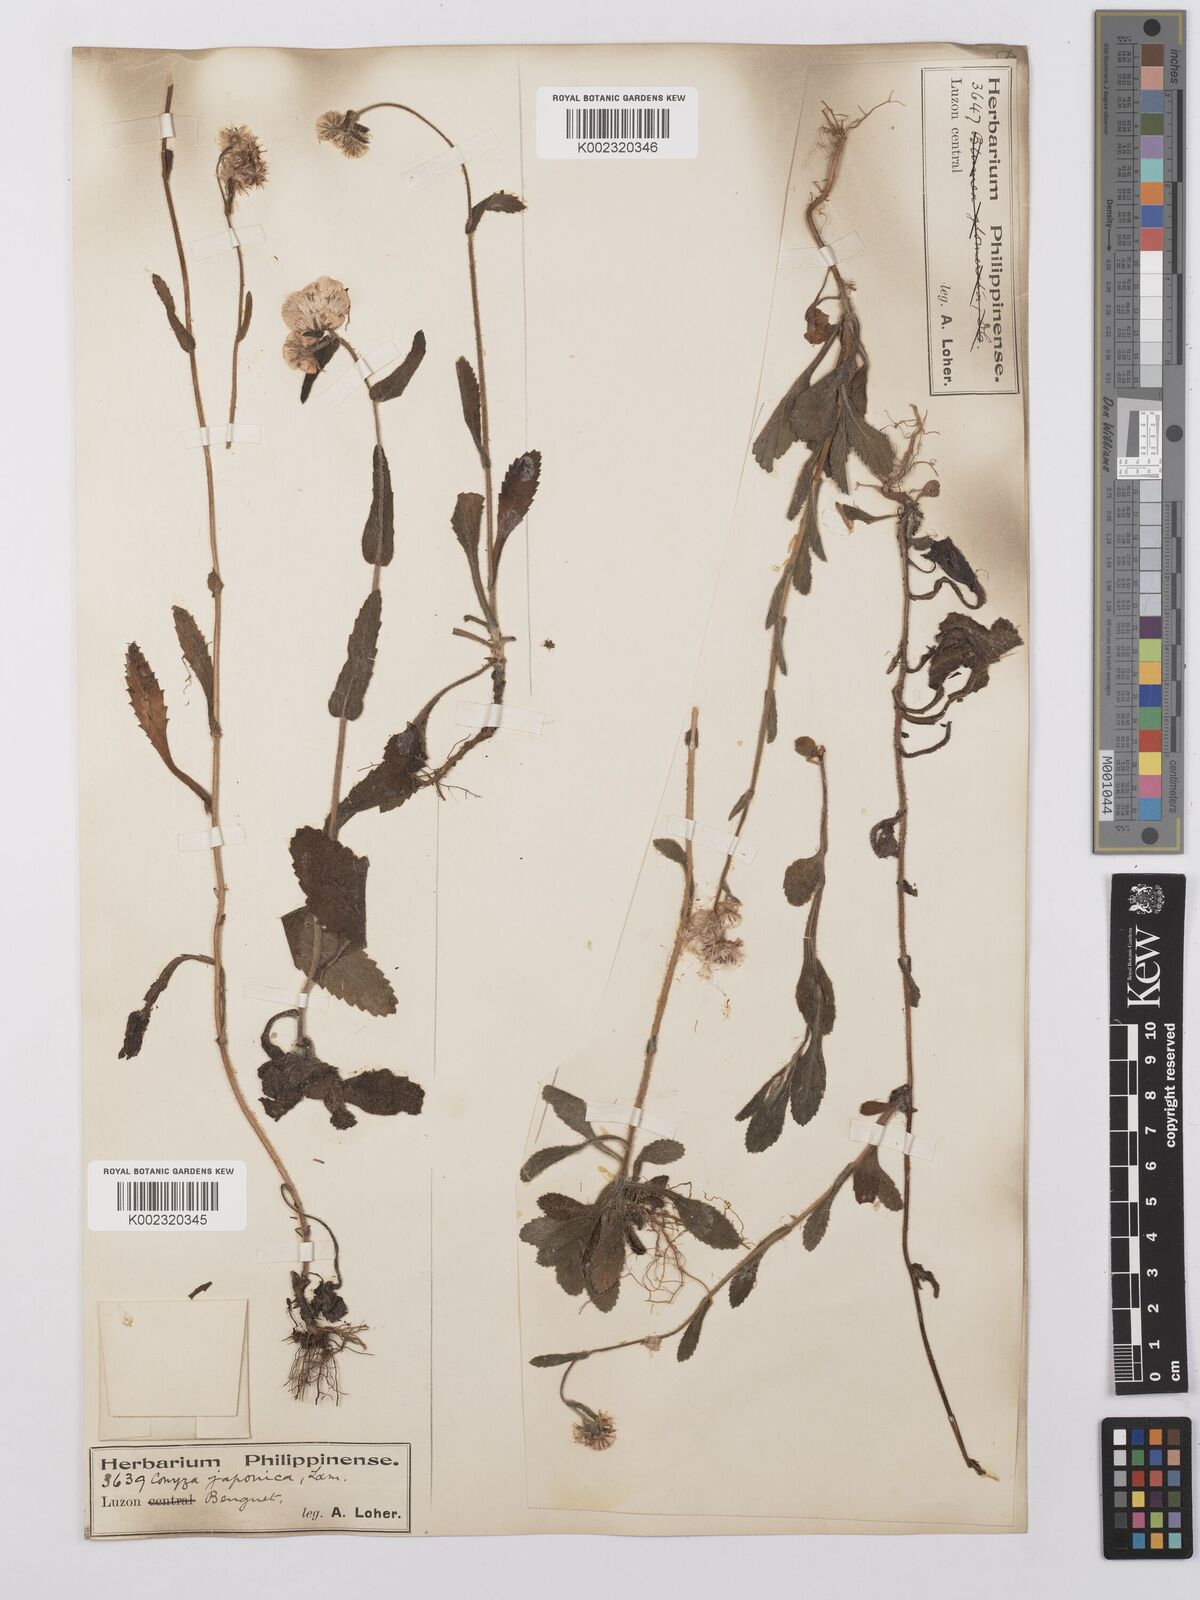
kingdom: Plantae
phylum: Tracheophyta
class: Magnoliopsida
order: Asterales
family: Asteraceae
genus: Eschenbachia
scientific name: Eschenbachia japonica
